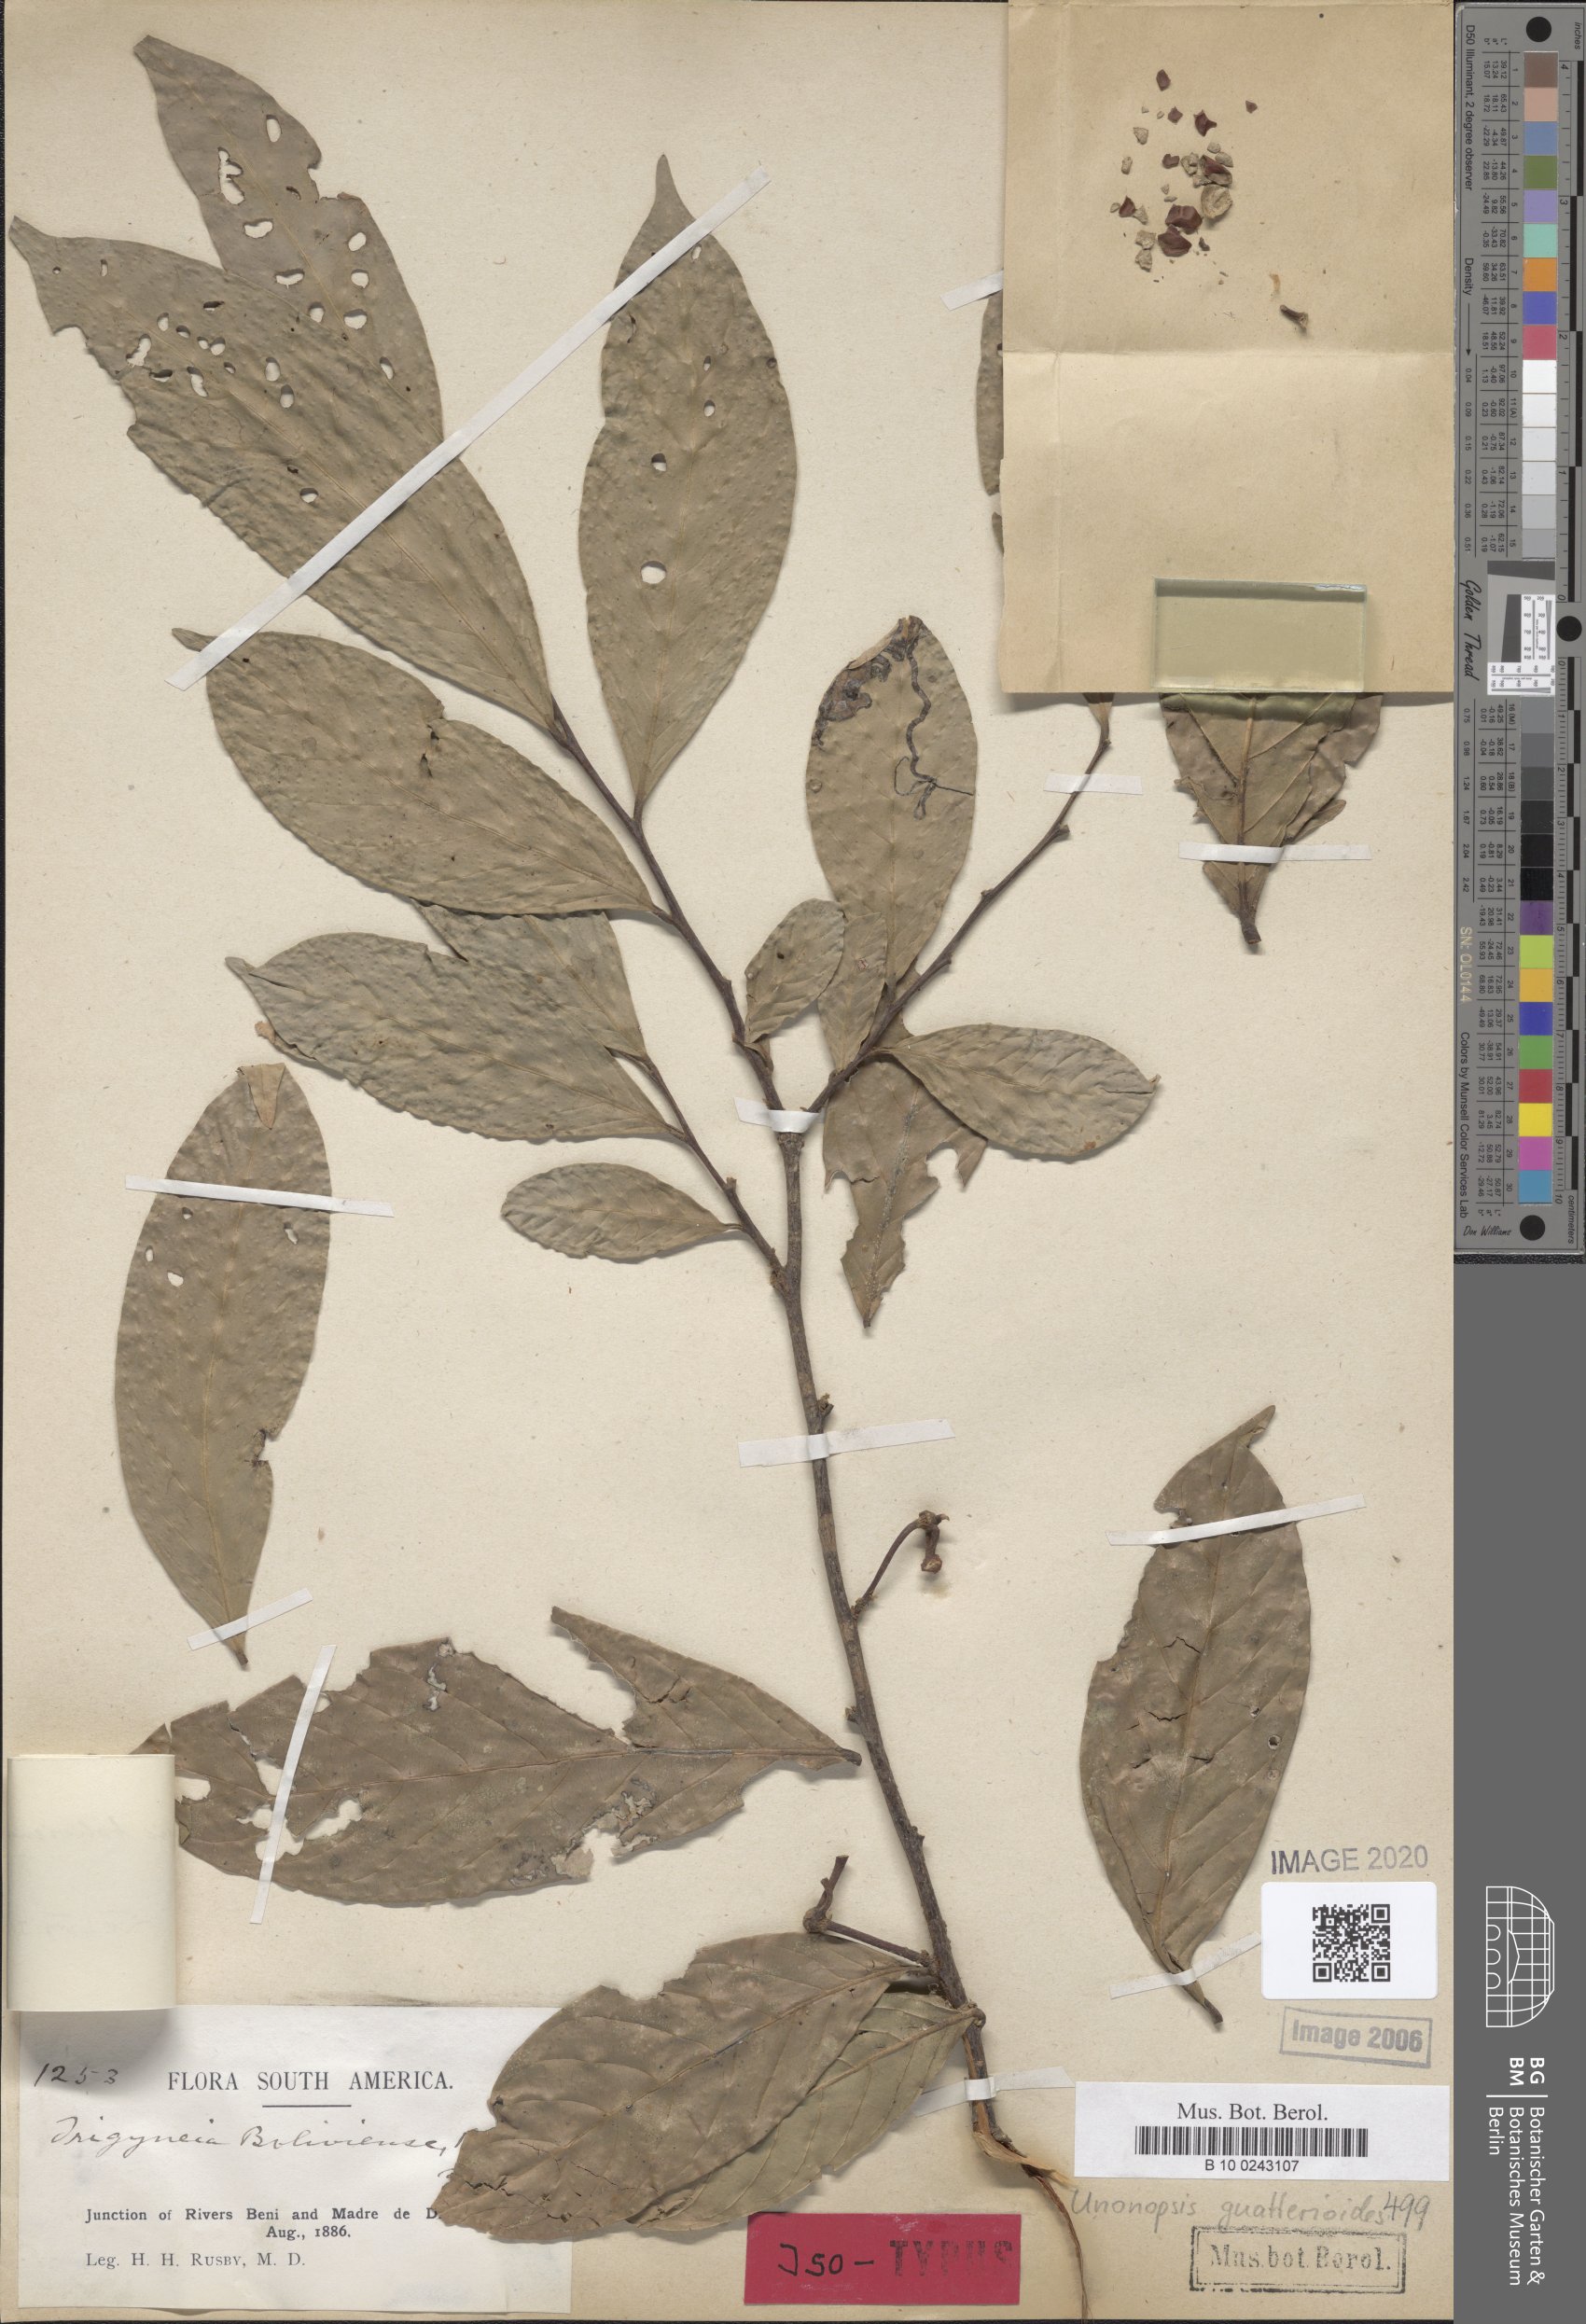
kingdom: Plantae
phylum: Tracheophyta
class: Magnoliopsida
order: Magnoliales
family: Annonaceae
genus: Unonopsis
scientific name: Unonopsis guatterioides
